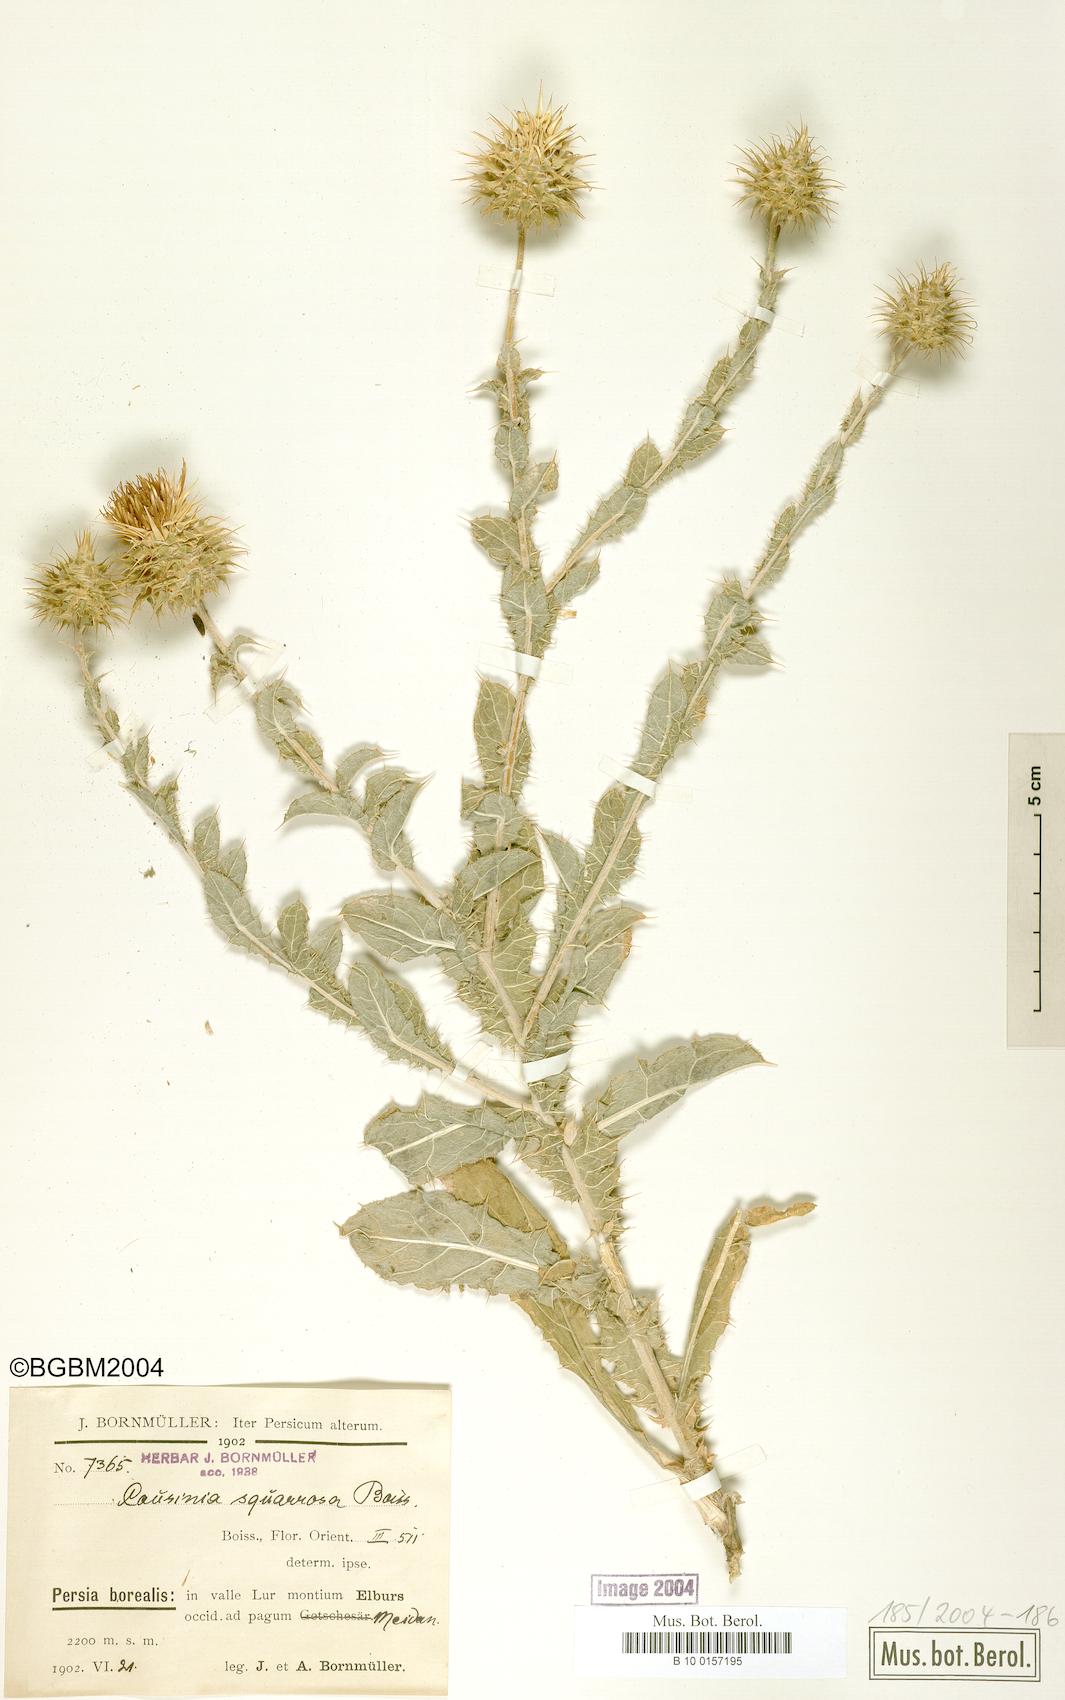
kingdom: Plantae
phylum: Tracheophyta
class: Magnoliopsida
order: Asterales
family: Asteraceae
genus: Cousinia
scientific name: Cousinia calocephala
